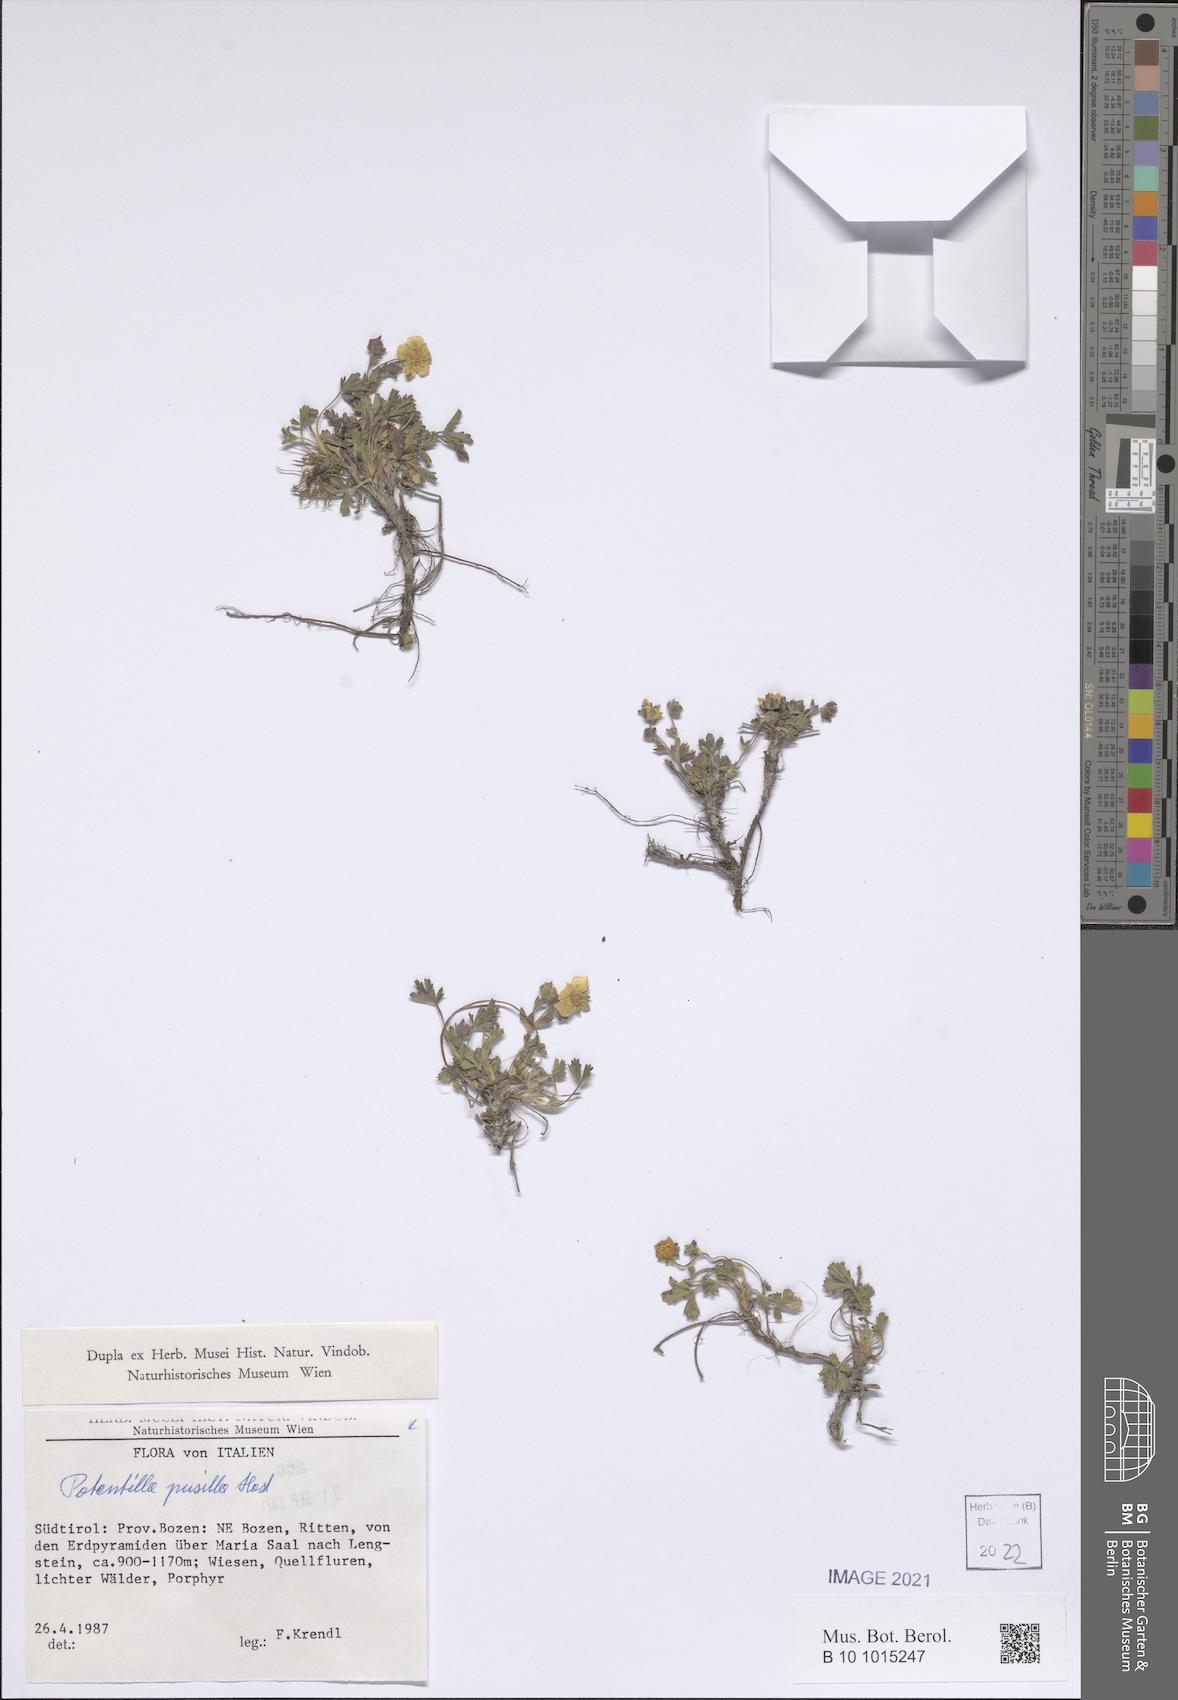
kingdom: Plantae
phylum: Tracheophyta
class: Magnoliopsida
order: Rosales
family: Rosaceae
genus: Potentilla
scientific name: Potentilla pusilla
